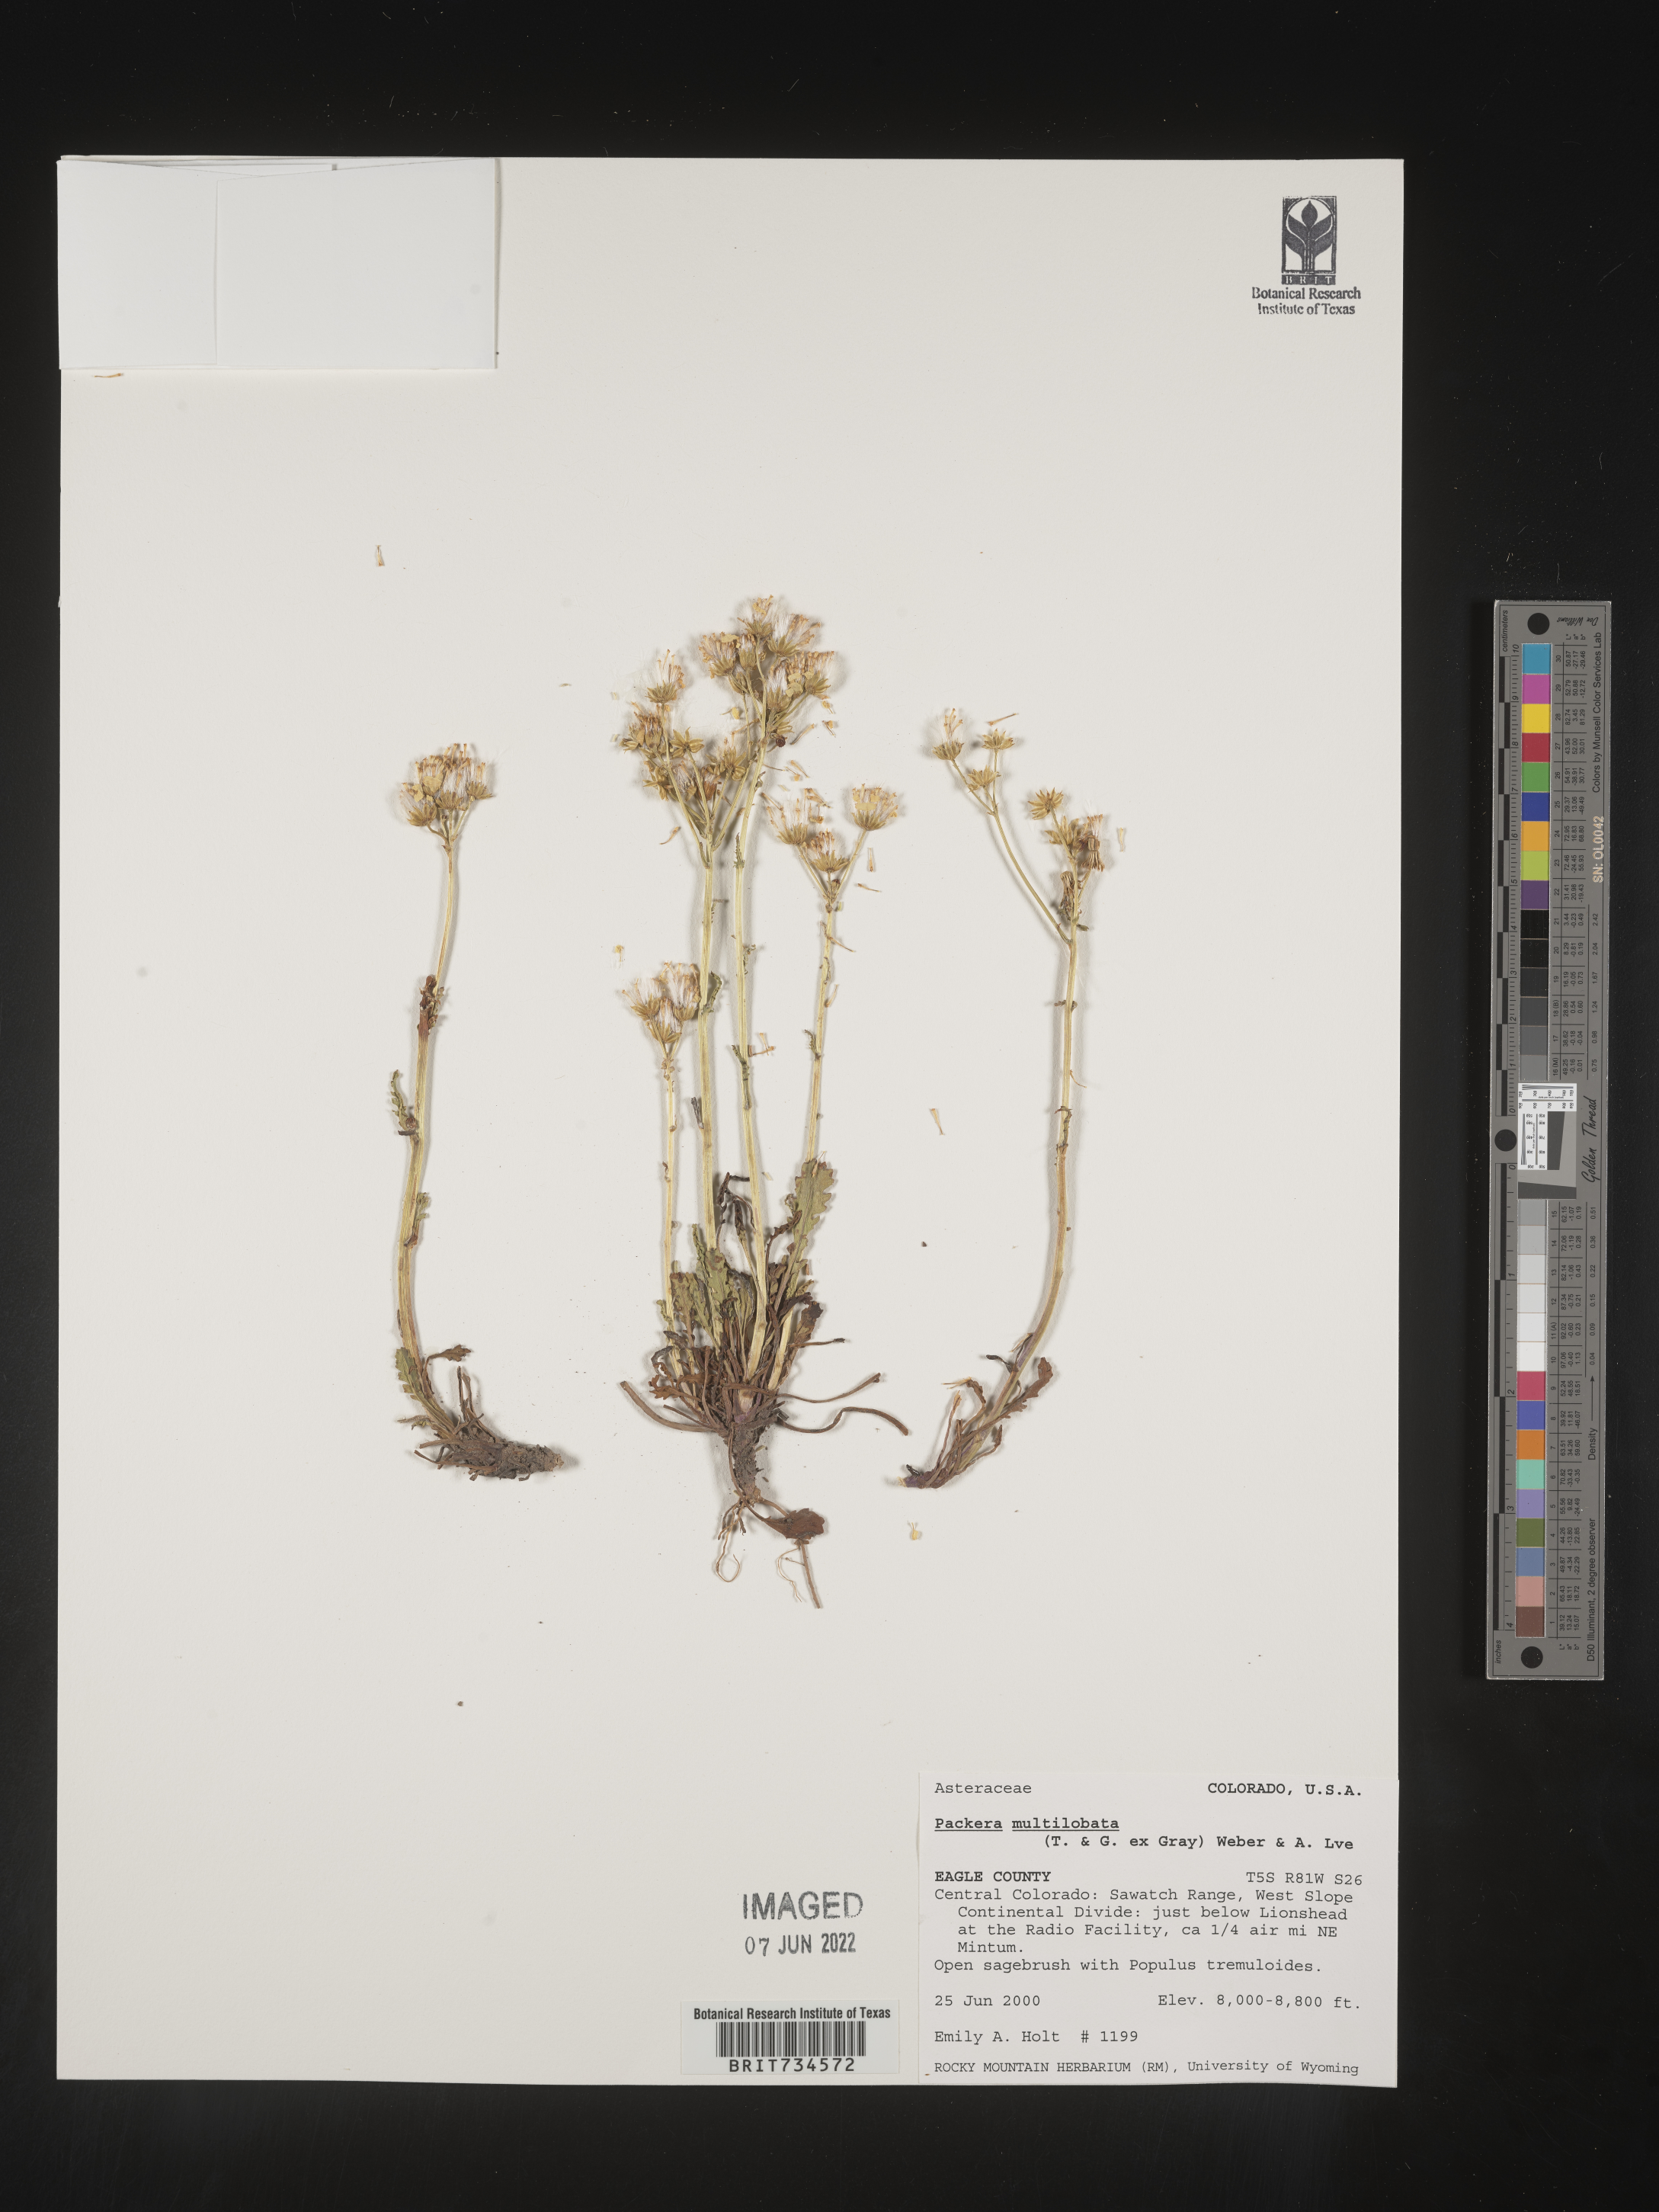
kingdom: Plantae
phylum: Tracheophyta
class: Magnoliopsida
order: Asterales
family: Asteraceae
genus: Packera
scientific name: Packera multilobata
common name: Lobe-leaf groundsel
